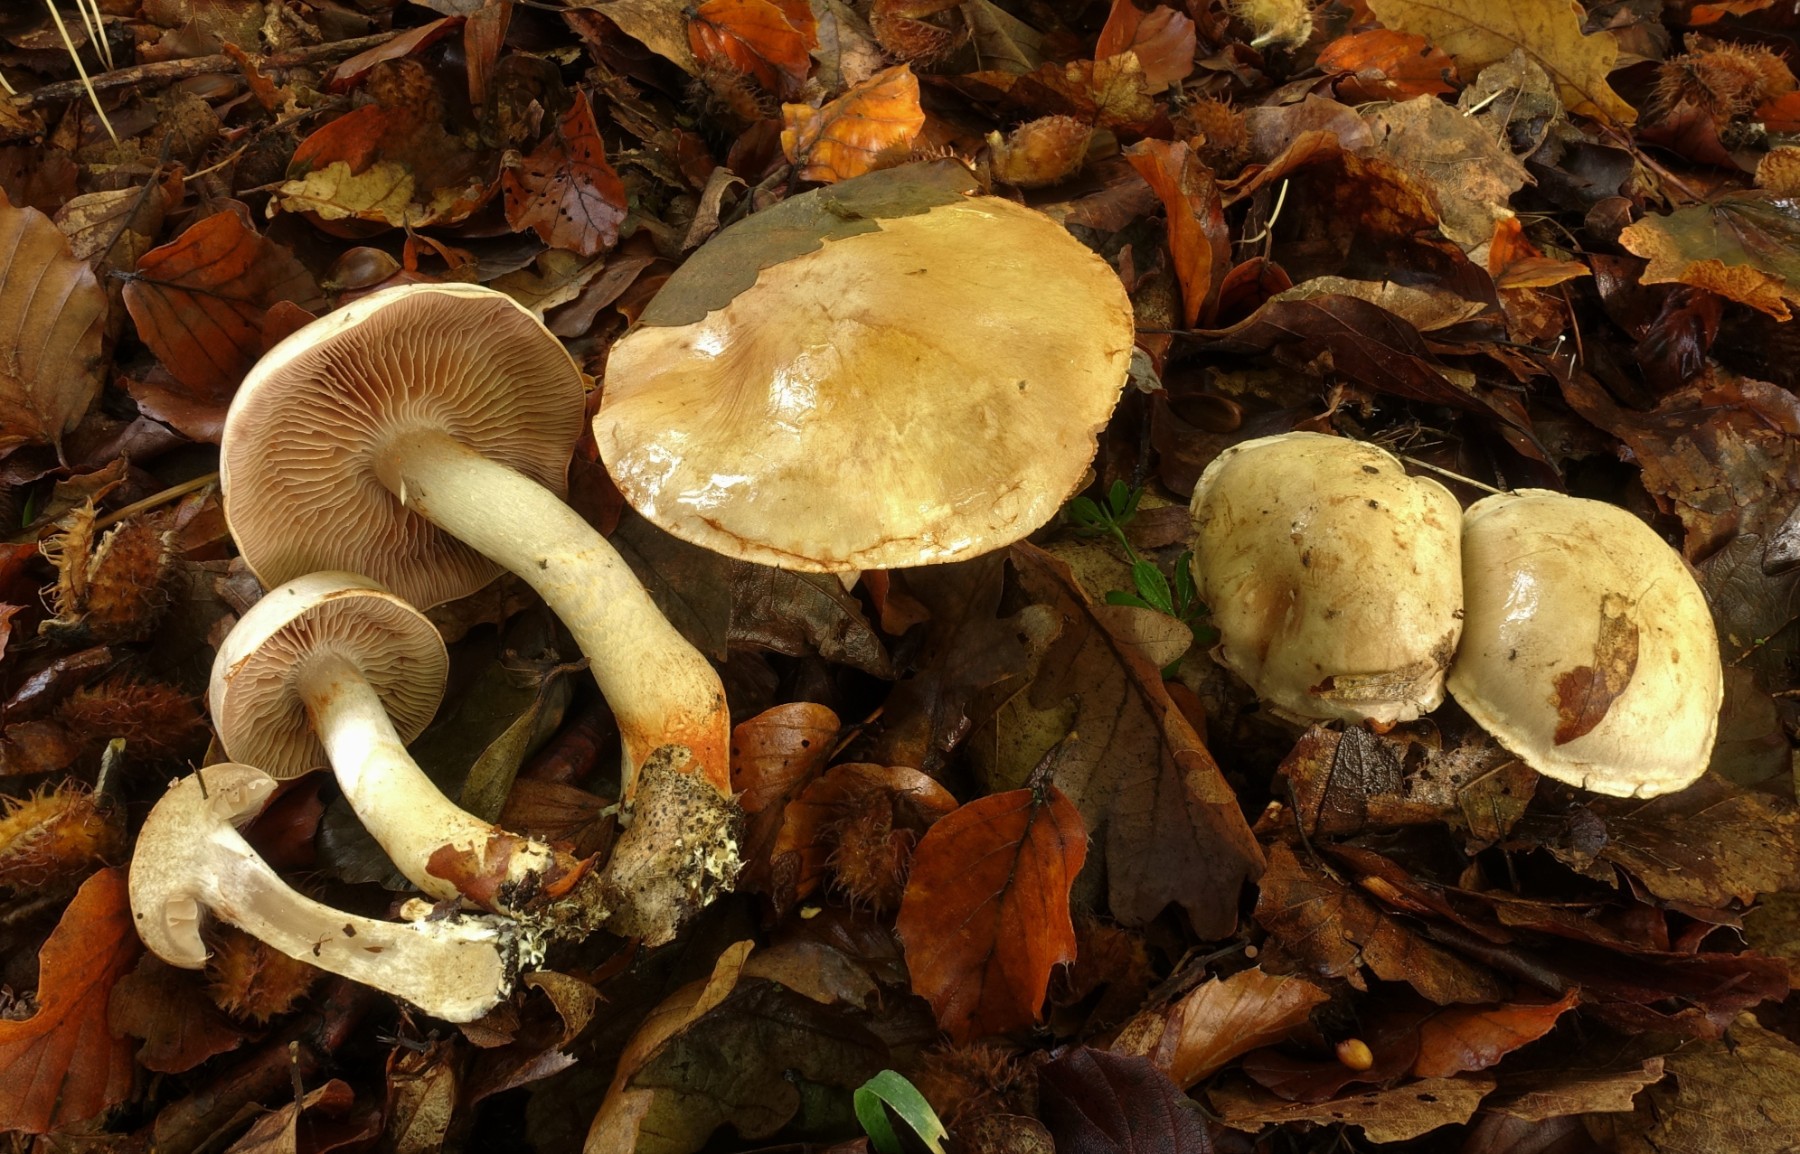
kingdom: Fungi
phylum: Basidiomycota
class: Agaricomycetes
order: Agaricales
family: Cortinariaceae
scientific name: Cortinariaceae
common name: slørhatfamilien
